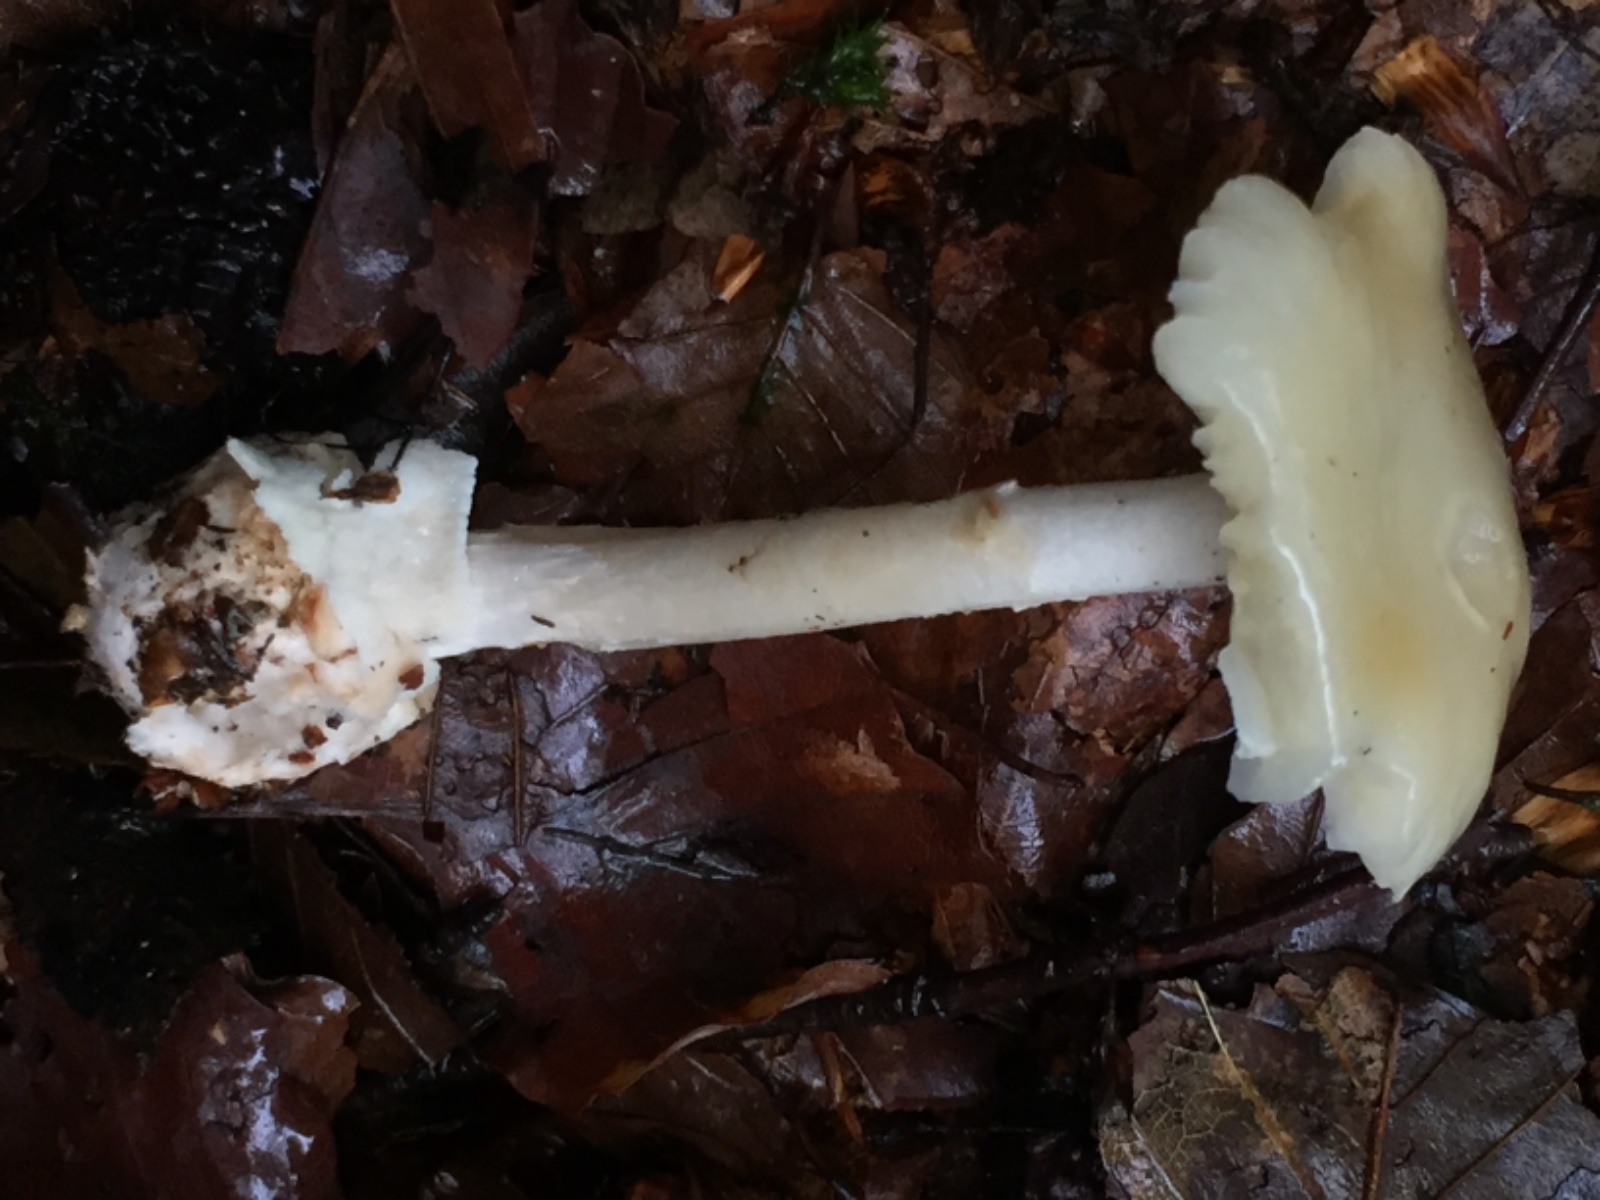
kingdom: Fungi
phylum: Basidiomycota
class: Agaricomycetes
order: Agaricales
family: Amanitaceae
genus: Amanita
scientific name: Amanita citrina
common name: kugleknoldet fluesvamp
